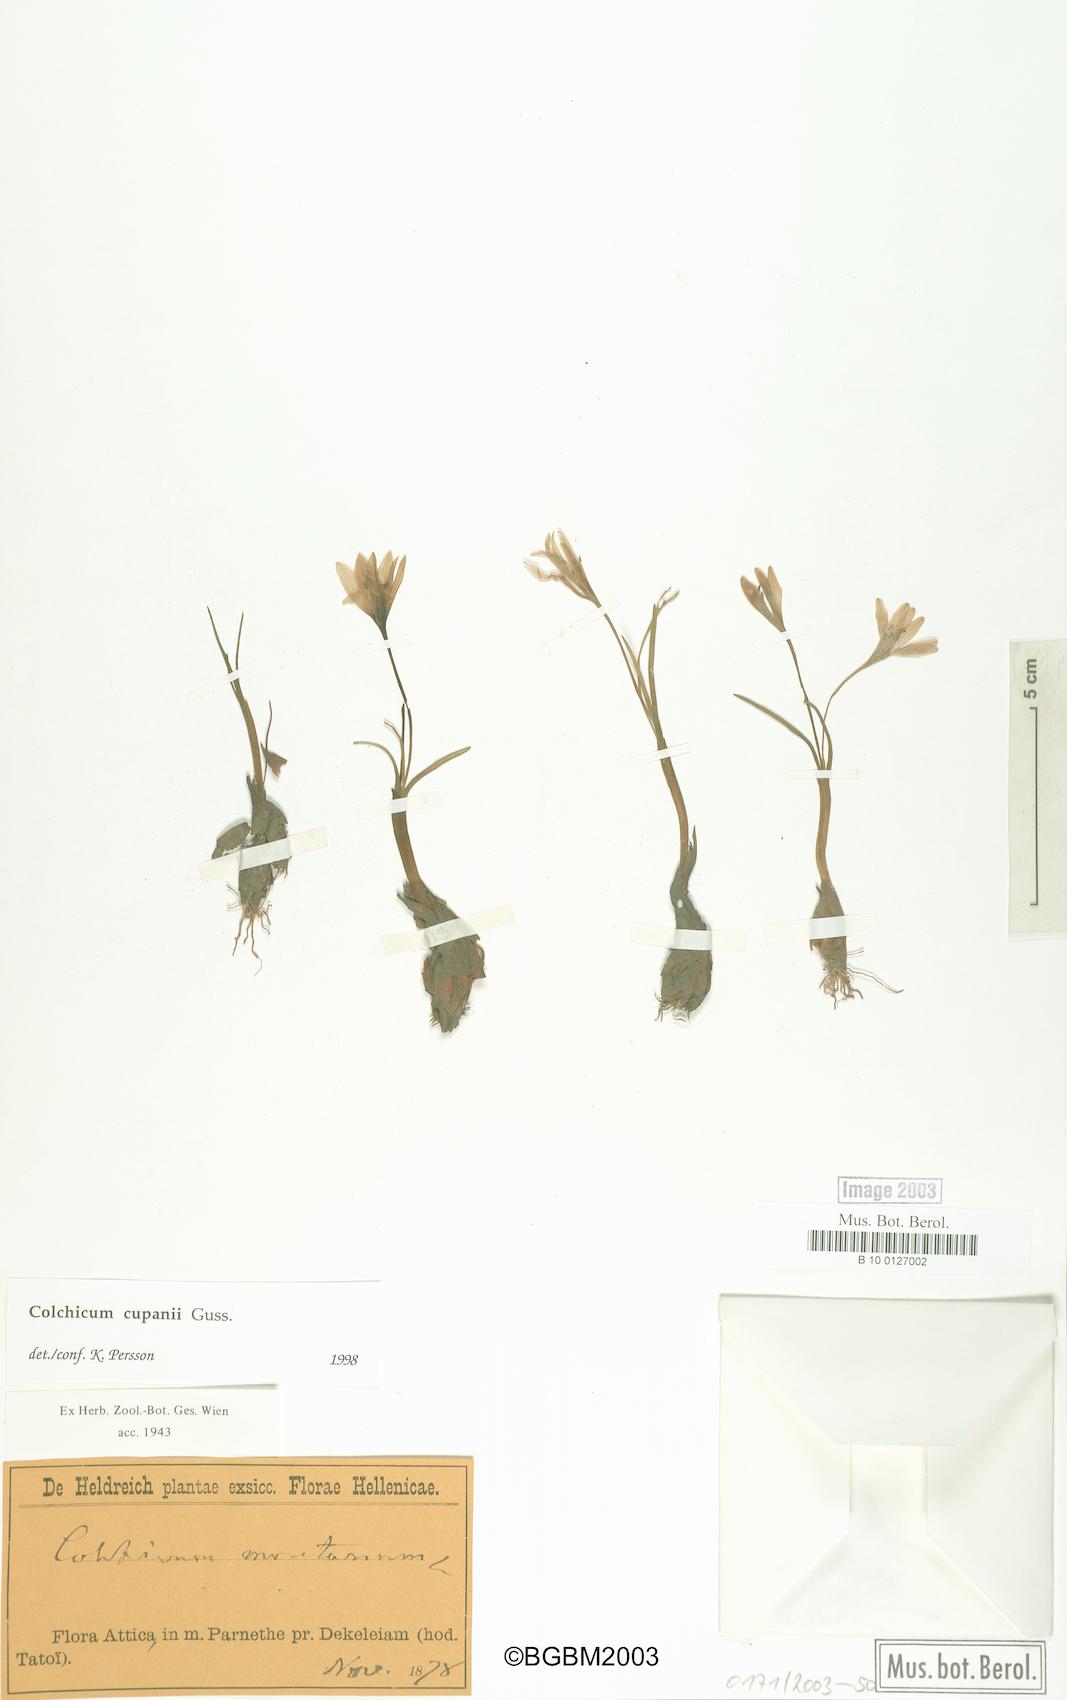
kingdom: Plantae
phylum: Tracheophyta
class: Liliopsida
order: Liliales
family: Colchicaceae
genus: Colchicum
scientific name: Colchicum cupanii
